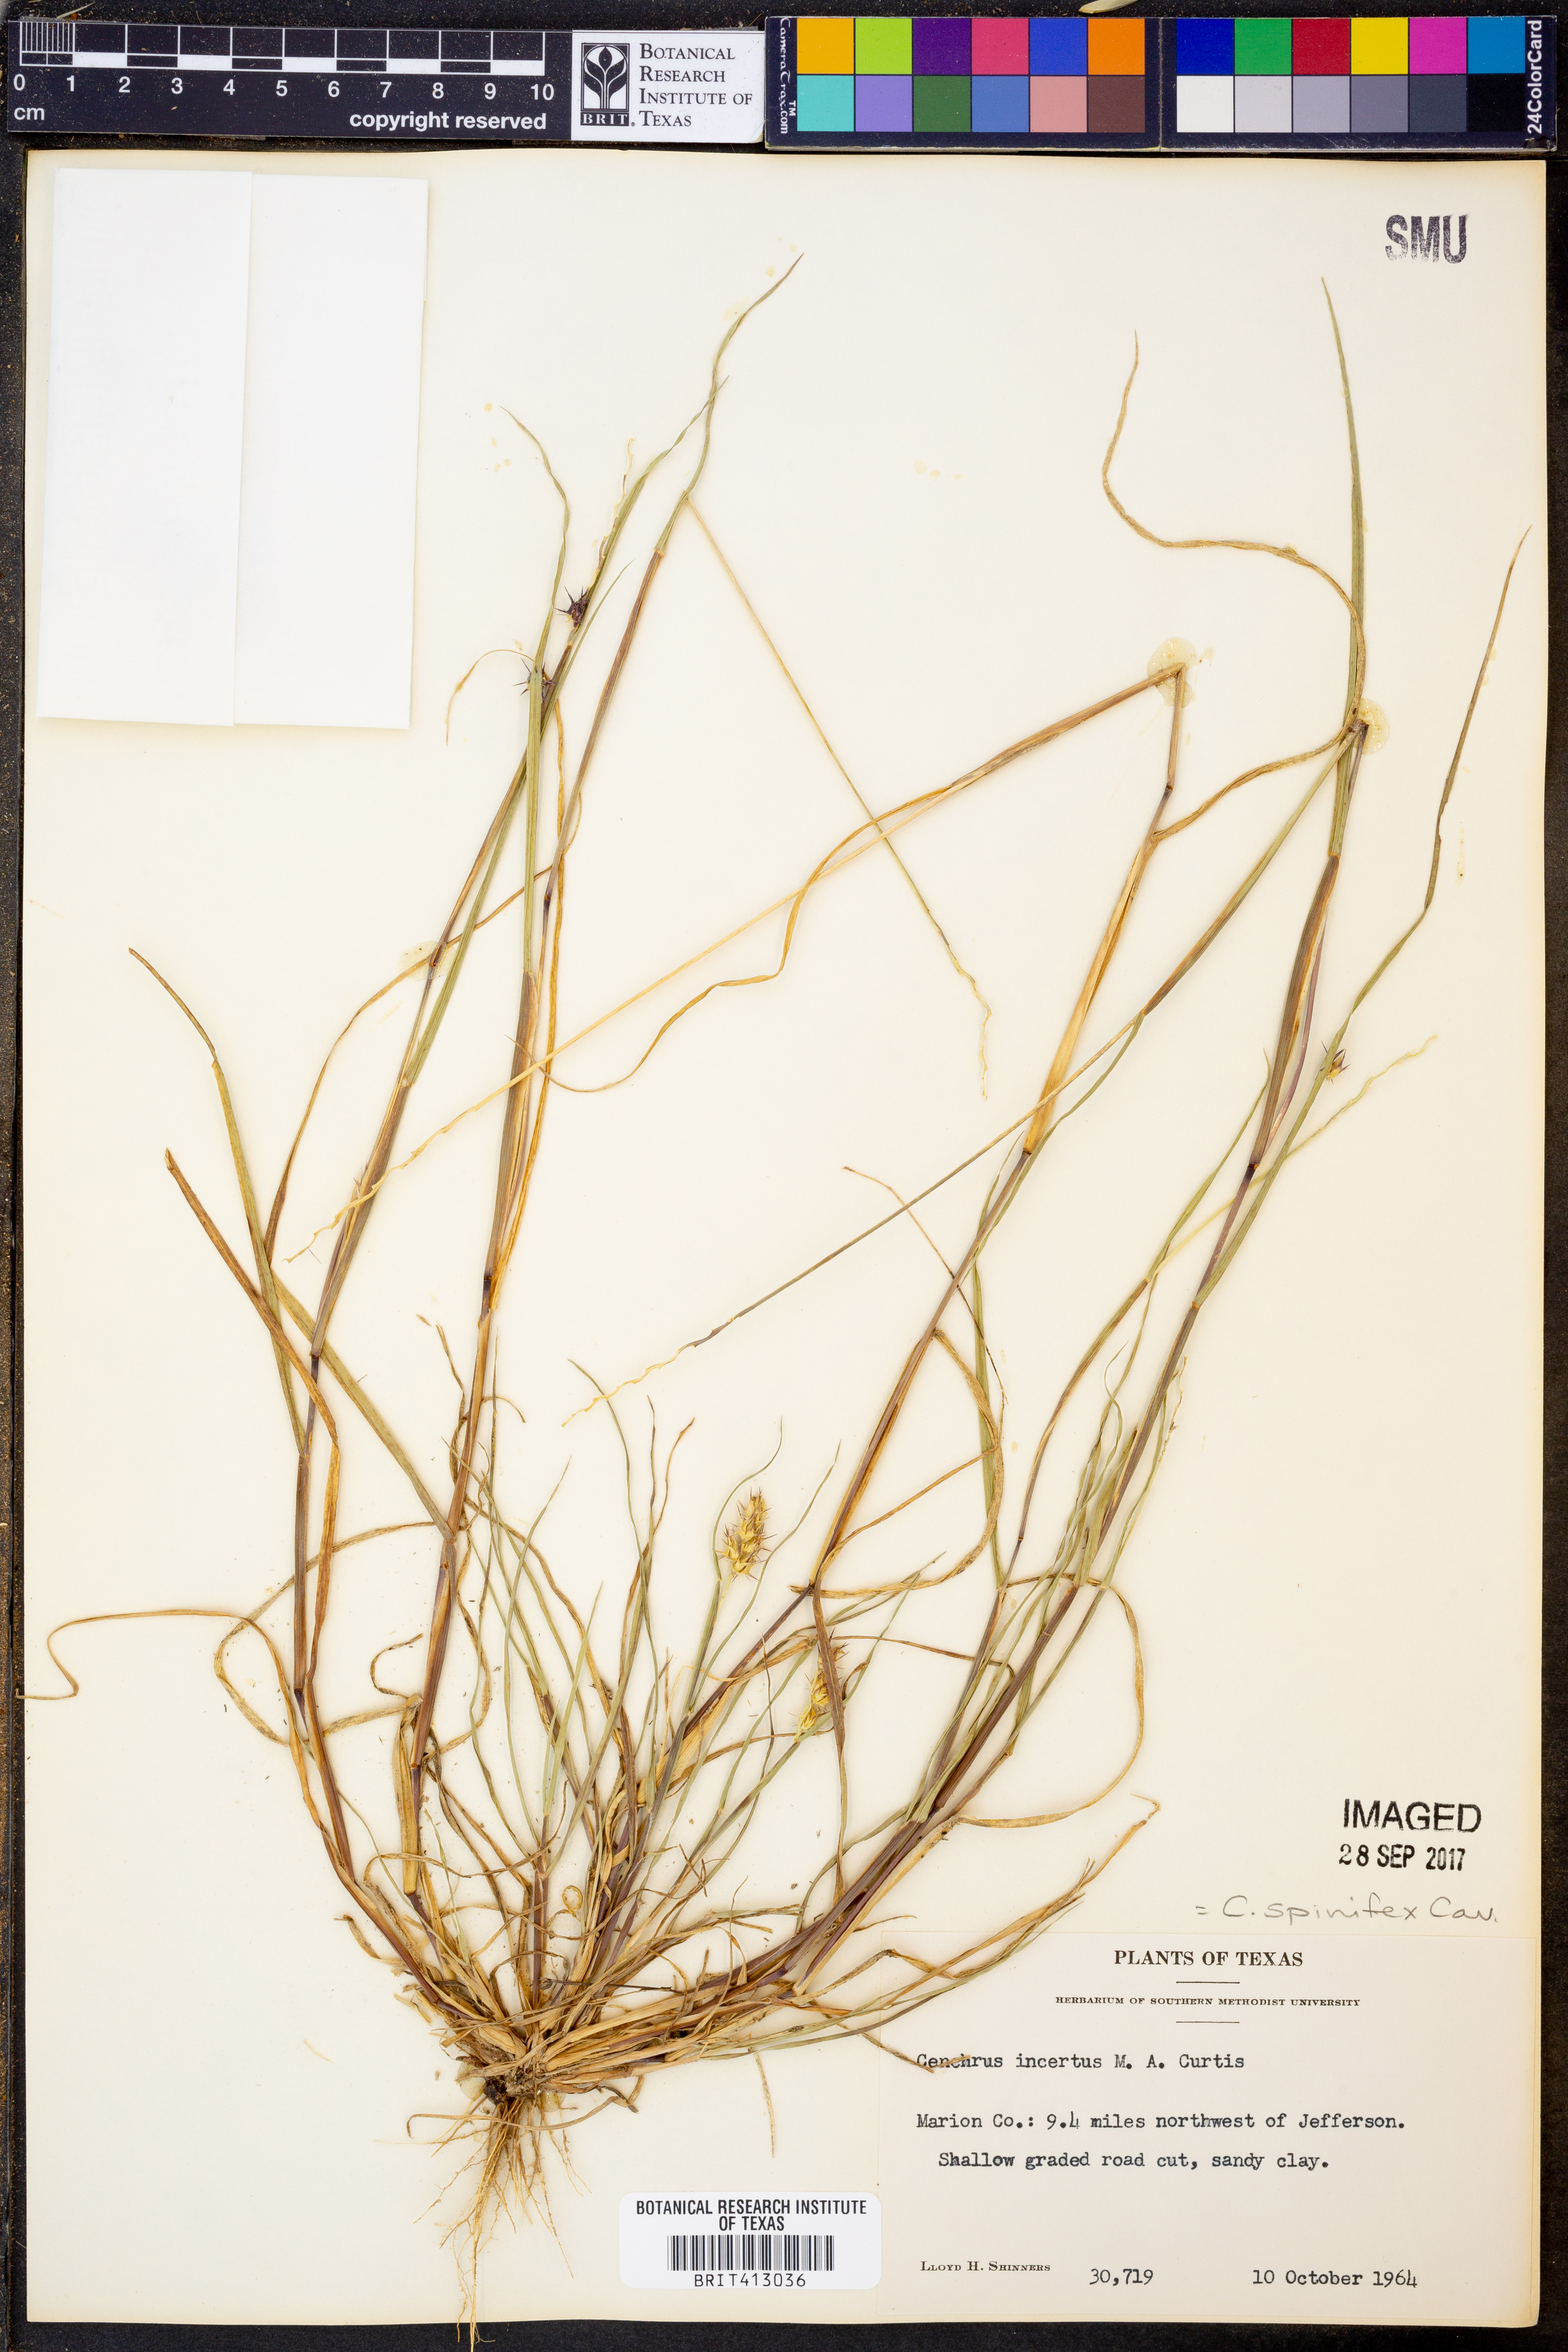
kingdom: Plantae
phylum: Tracheophyta
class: Liliopsida
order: Poales
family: Poaceae
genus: Cenchrus
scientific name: Cenchrus spinifex
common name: Coast sandbur
